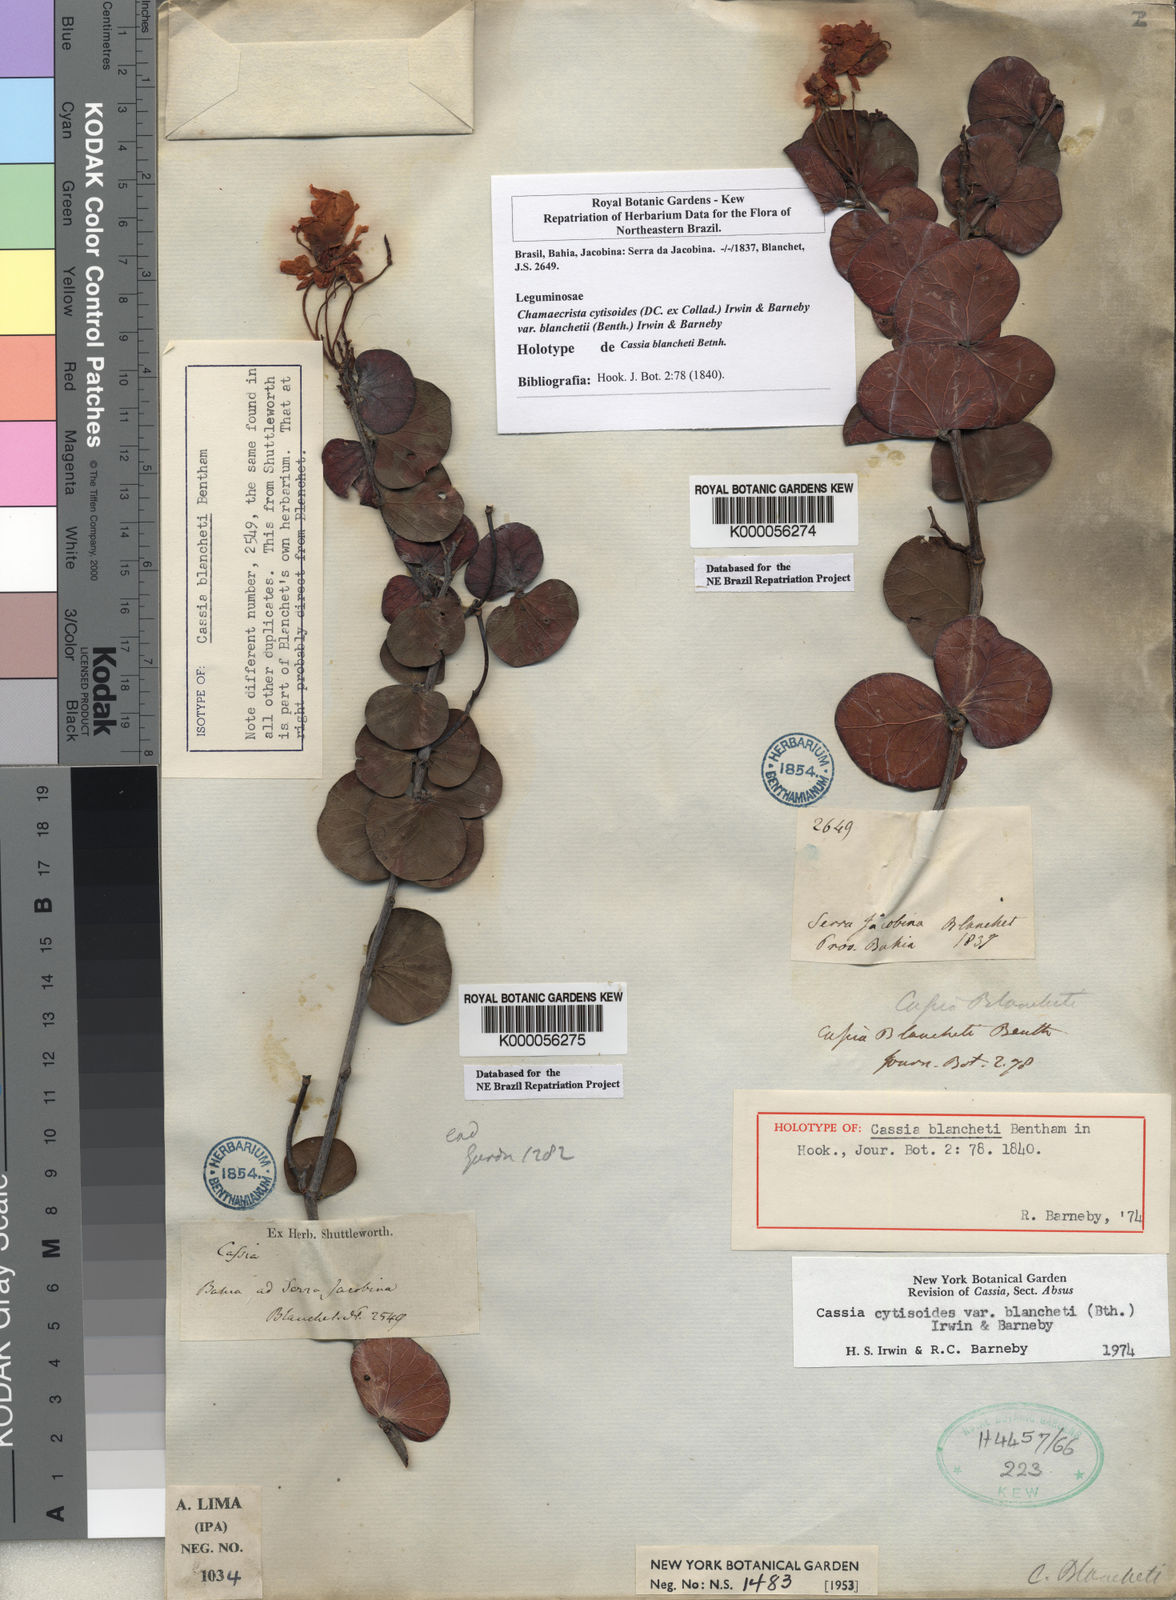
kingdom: Plantae
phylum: Tracheophyta
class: Magnoliopsida
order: Fabales
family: Fabaceae
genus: Chamaecrista
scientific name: Chamaecrista cytisoides
